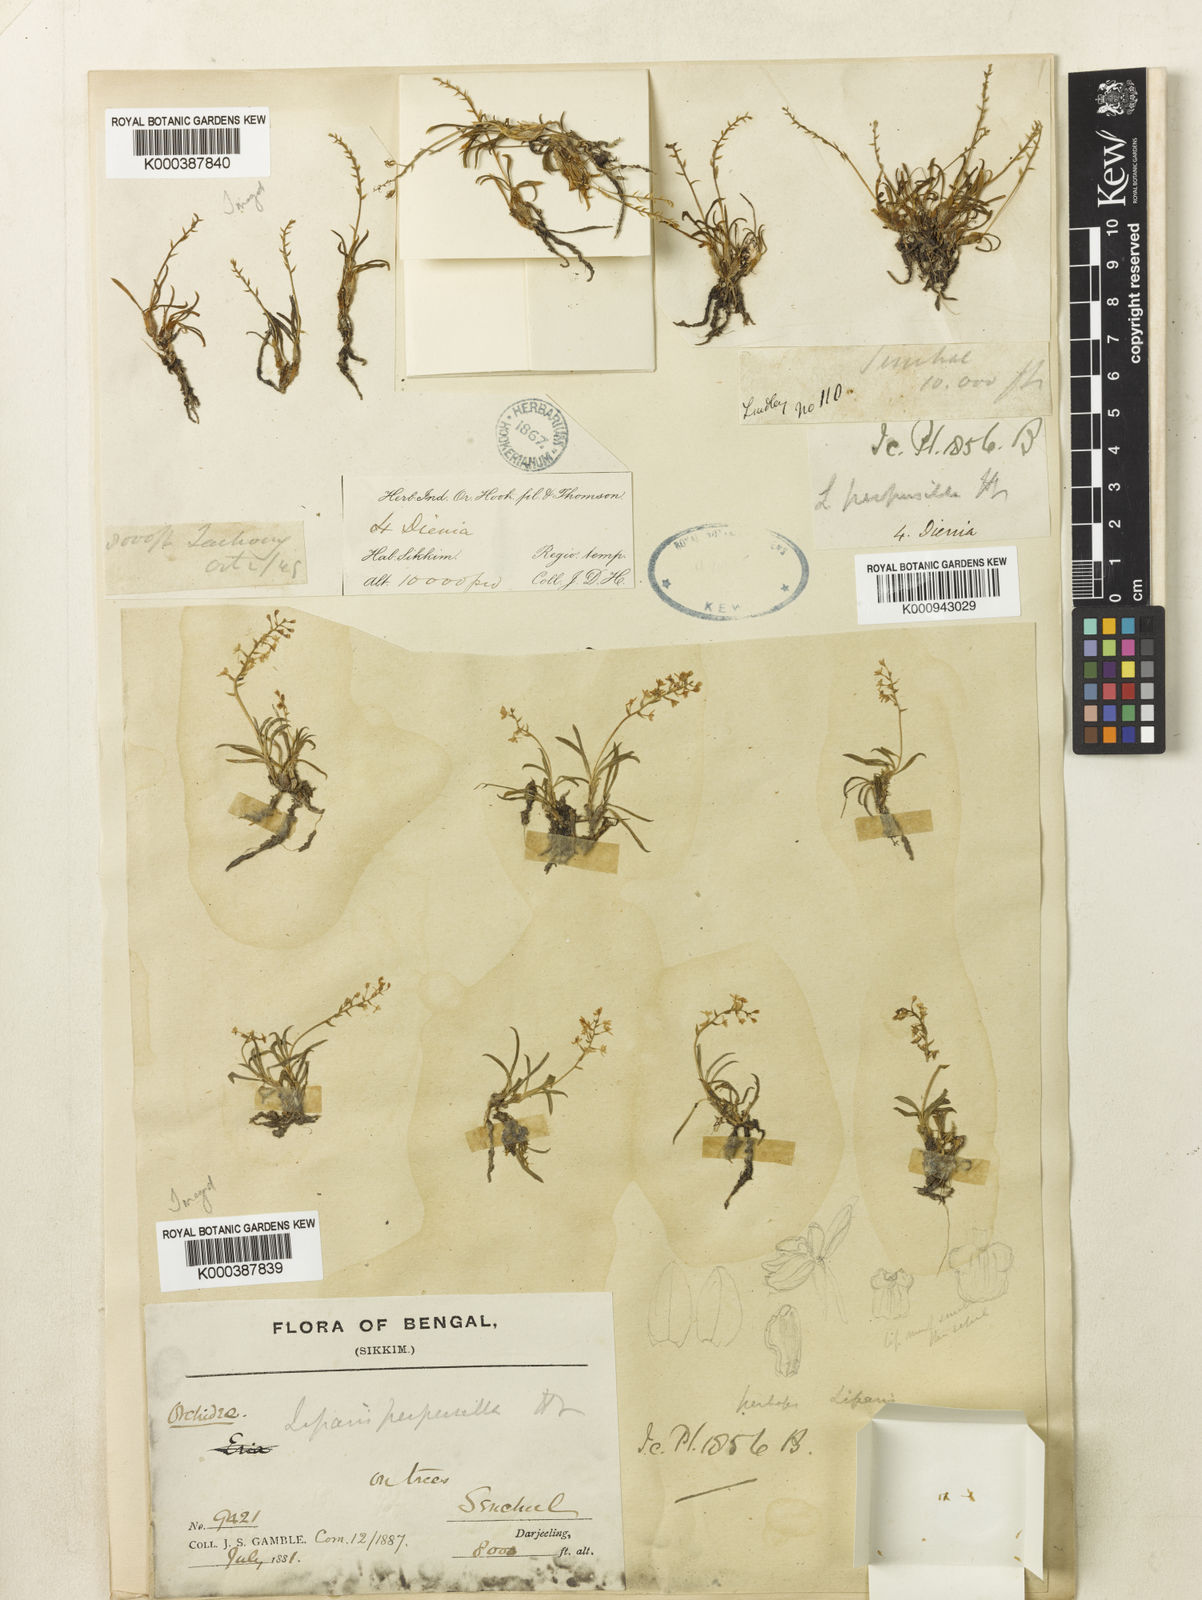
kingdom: Plantae
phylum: Tracheophyta
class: Liliopsida
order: Asparagales
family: Orchidaceae
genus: Liparis
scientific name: Liparis perpusilla
